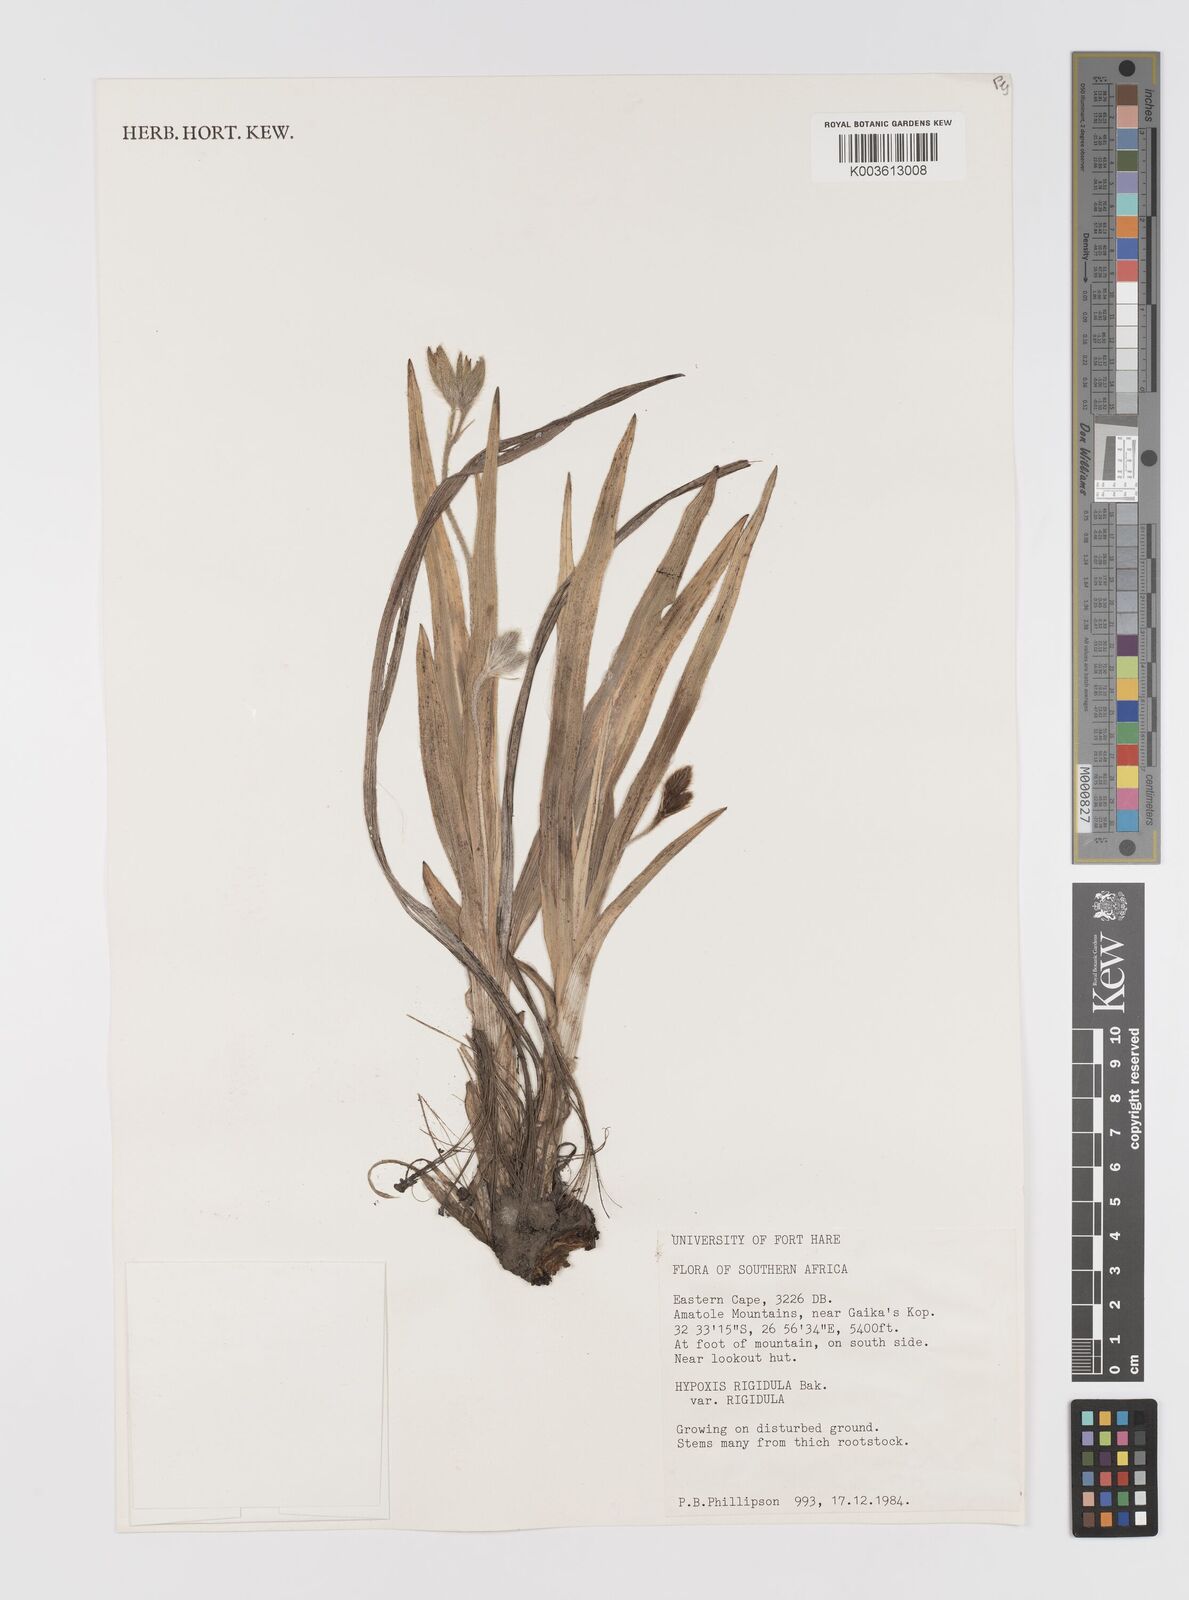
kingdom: Plantae
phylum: Tracheophyta
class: Liliopsida
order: Asparagales
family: Hypoxidaceae
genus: Hypoxis
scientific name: Hypoxis rigidula
